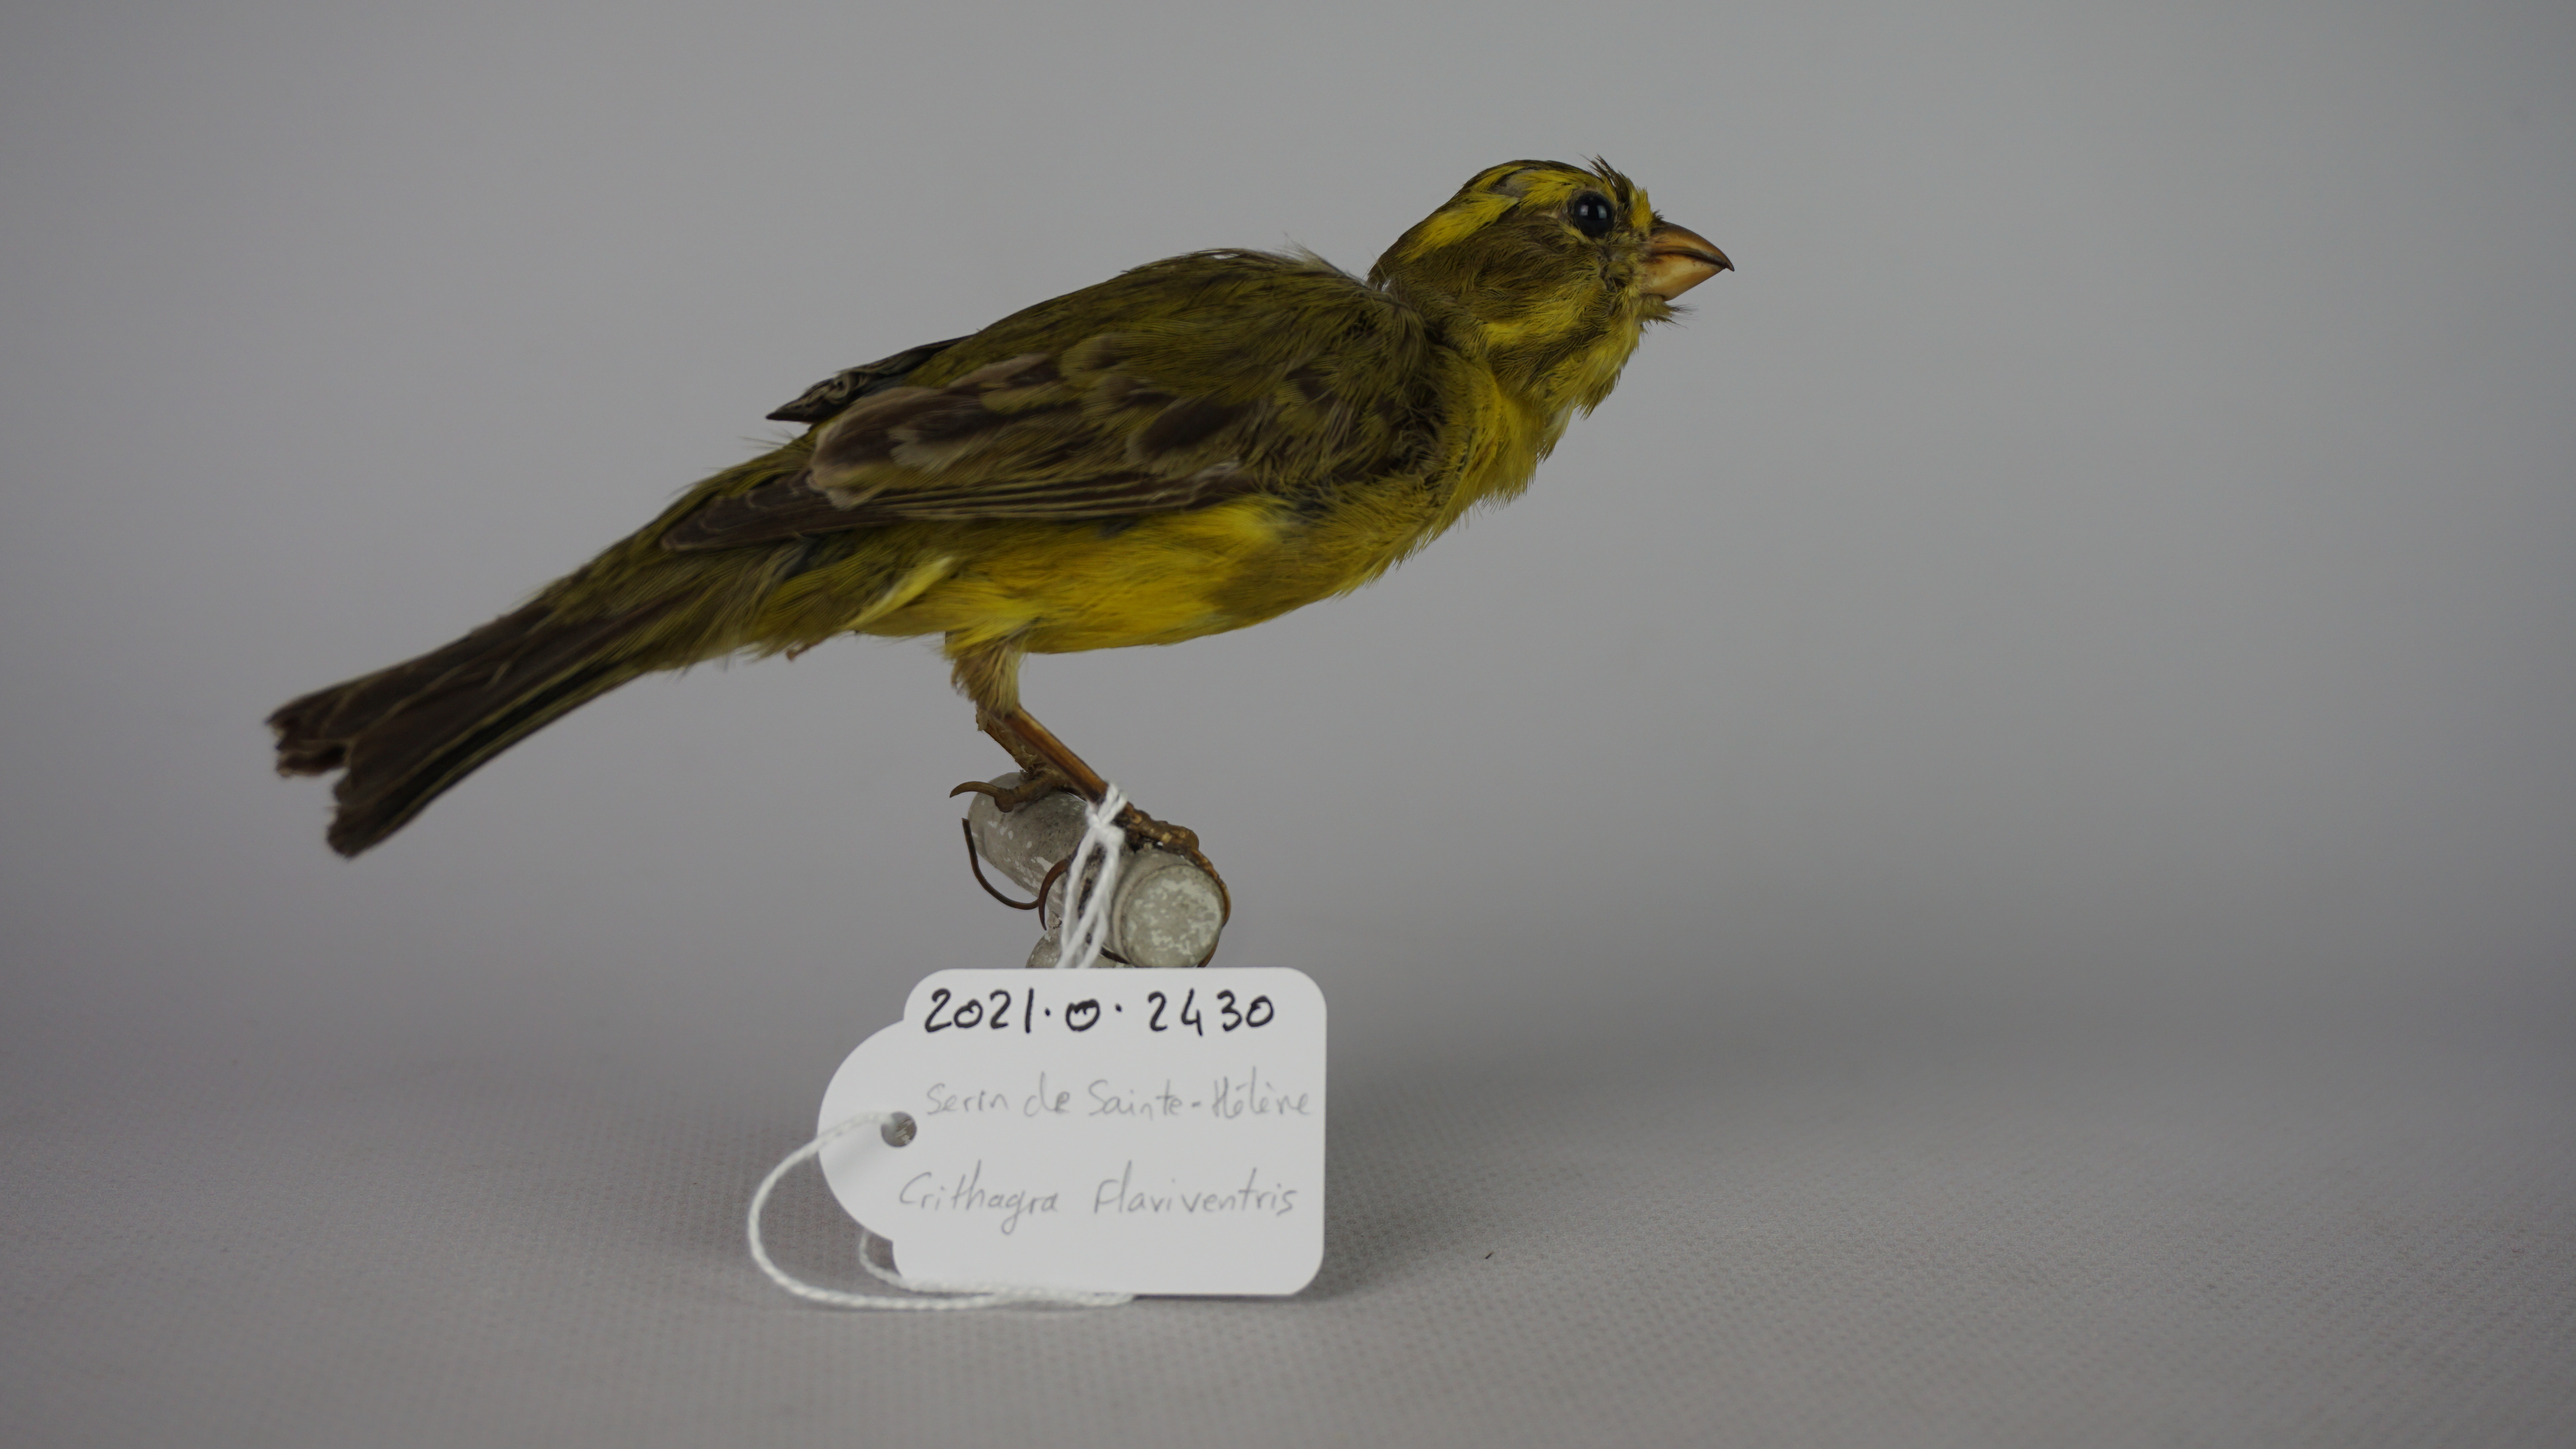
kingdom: Animalia
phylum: Chordata
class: Aves
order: Passeriformes
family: Fringillidae
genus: Crithagra
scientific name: Crithagra flaviventris
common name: Yellow canary
